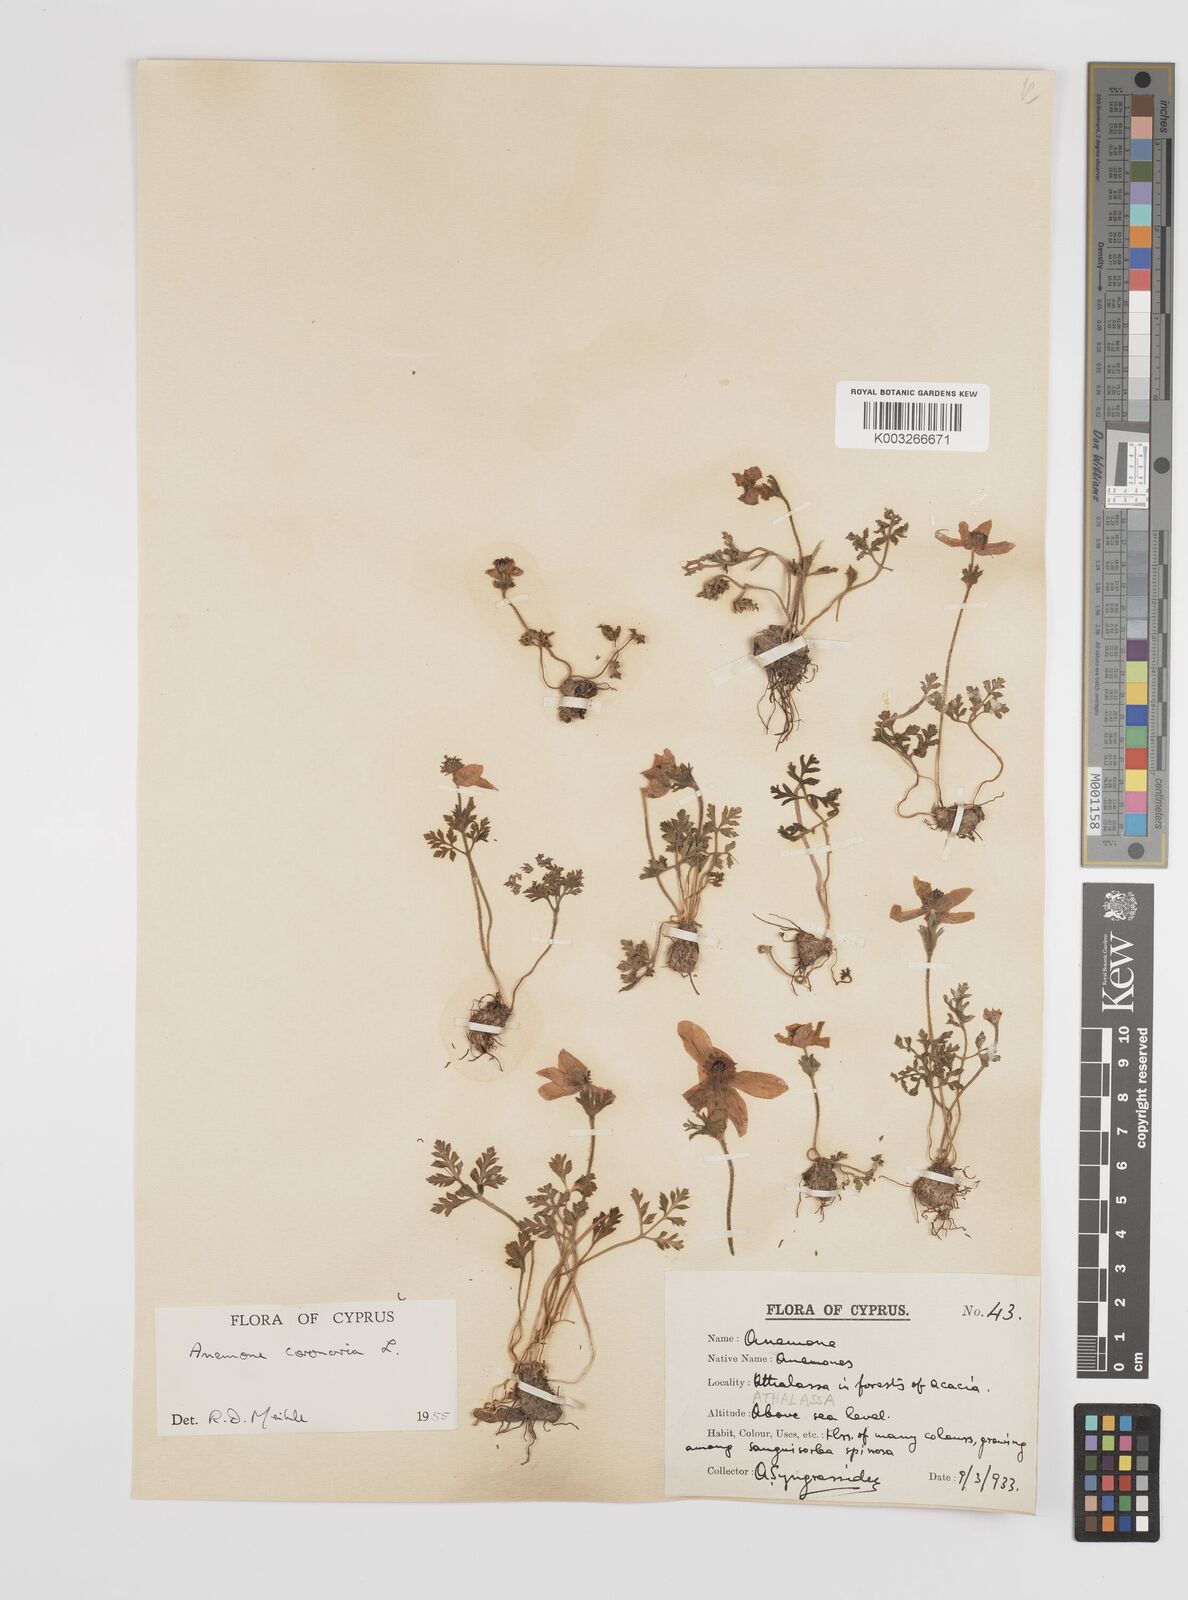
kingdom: Plantae
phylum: Tracheophyta
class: Magnoliopsida
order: Ranunculales
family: Ranunculaceae
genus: Anemone
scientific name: Anemone coronaria
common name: Poppy anemone
